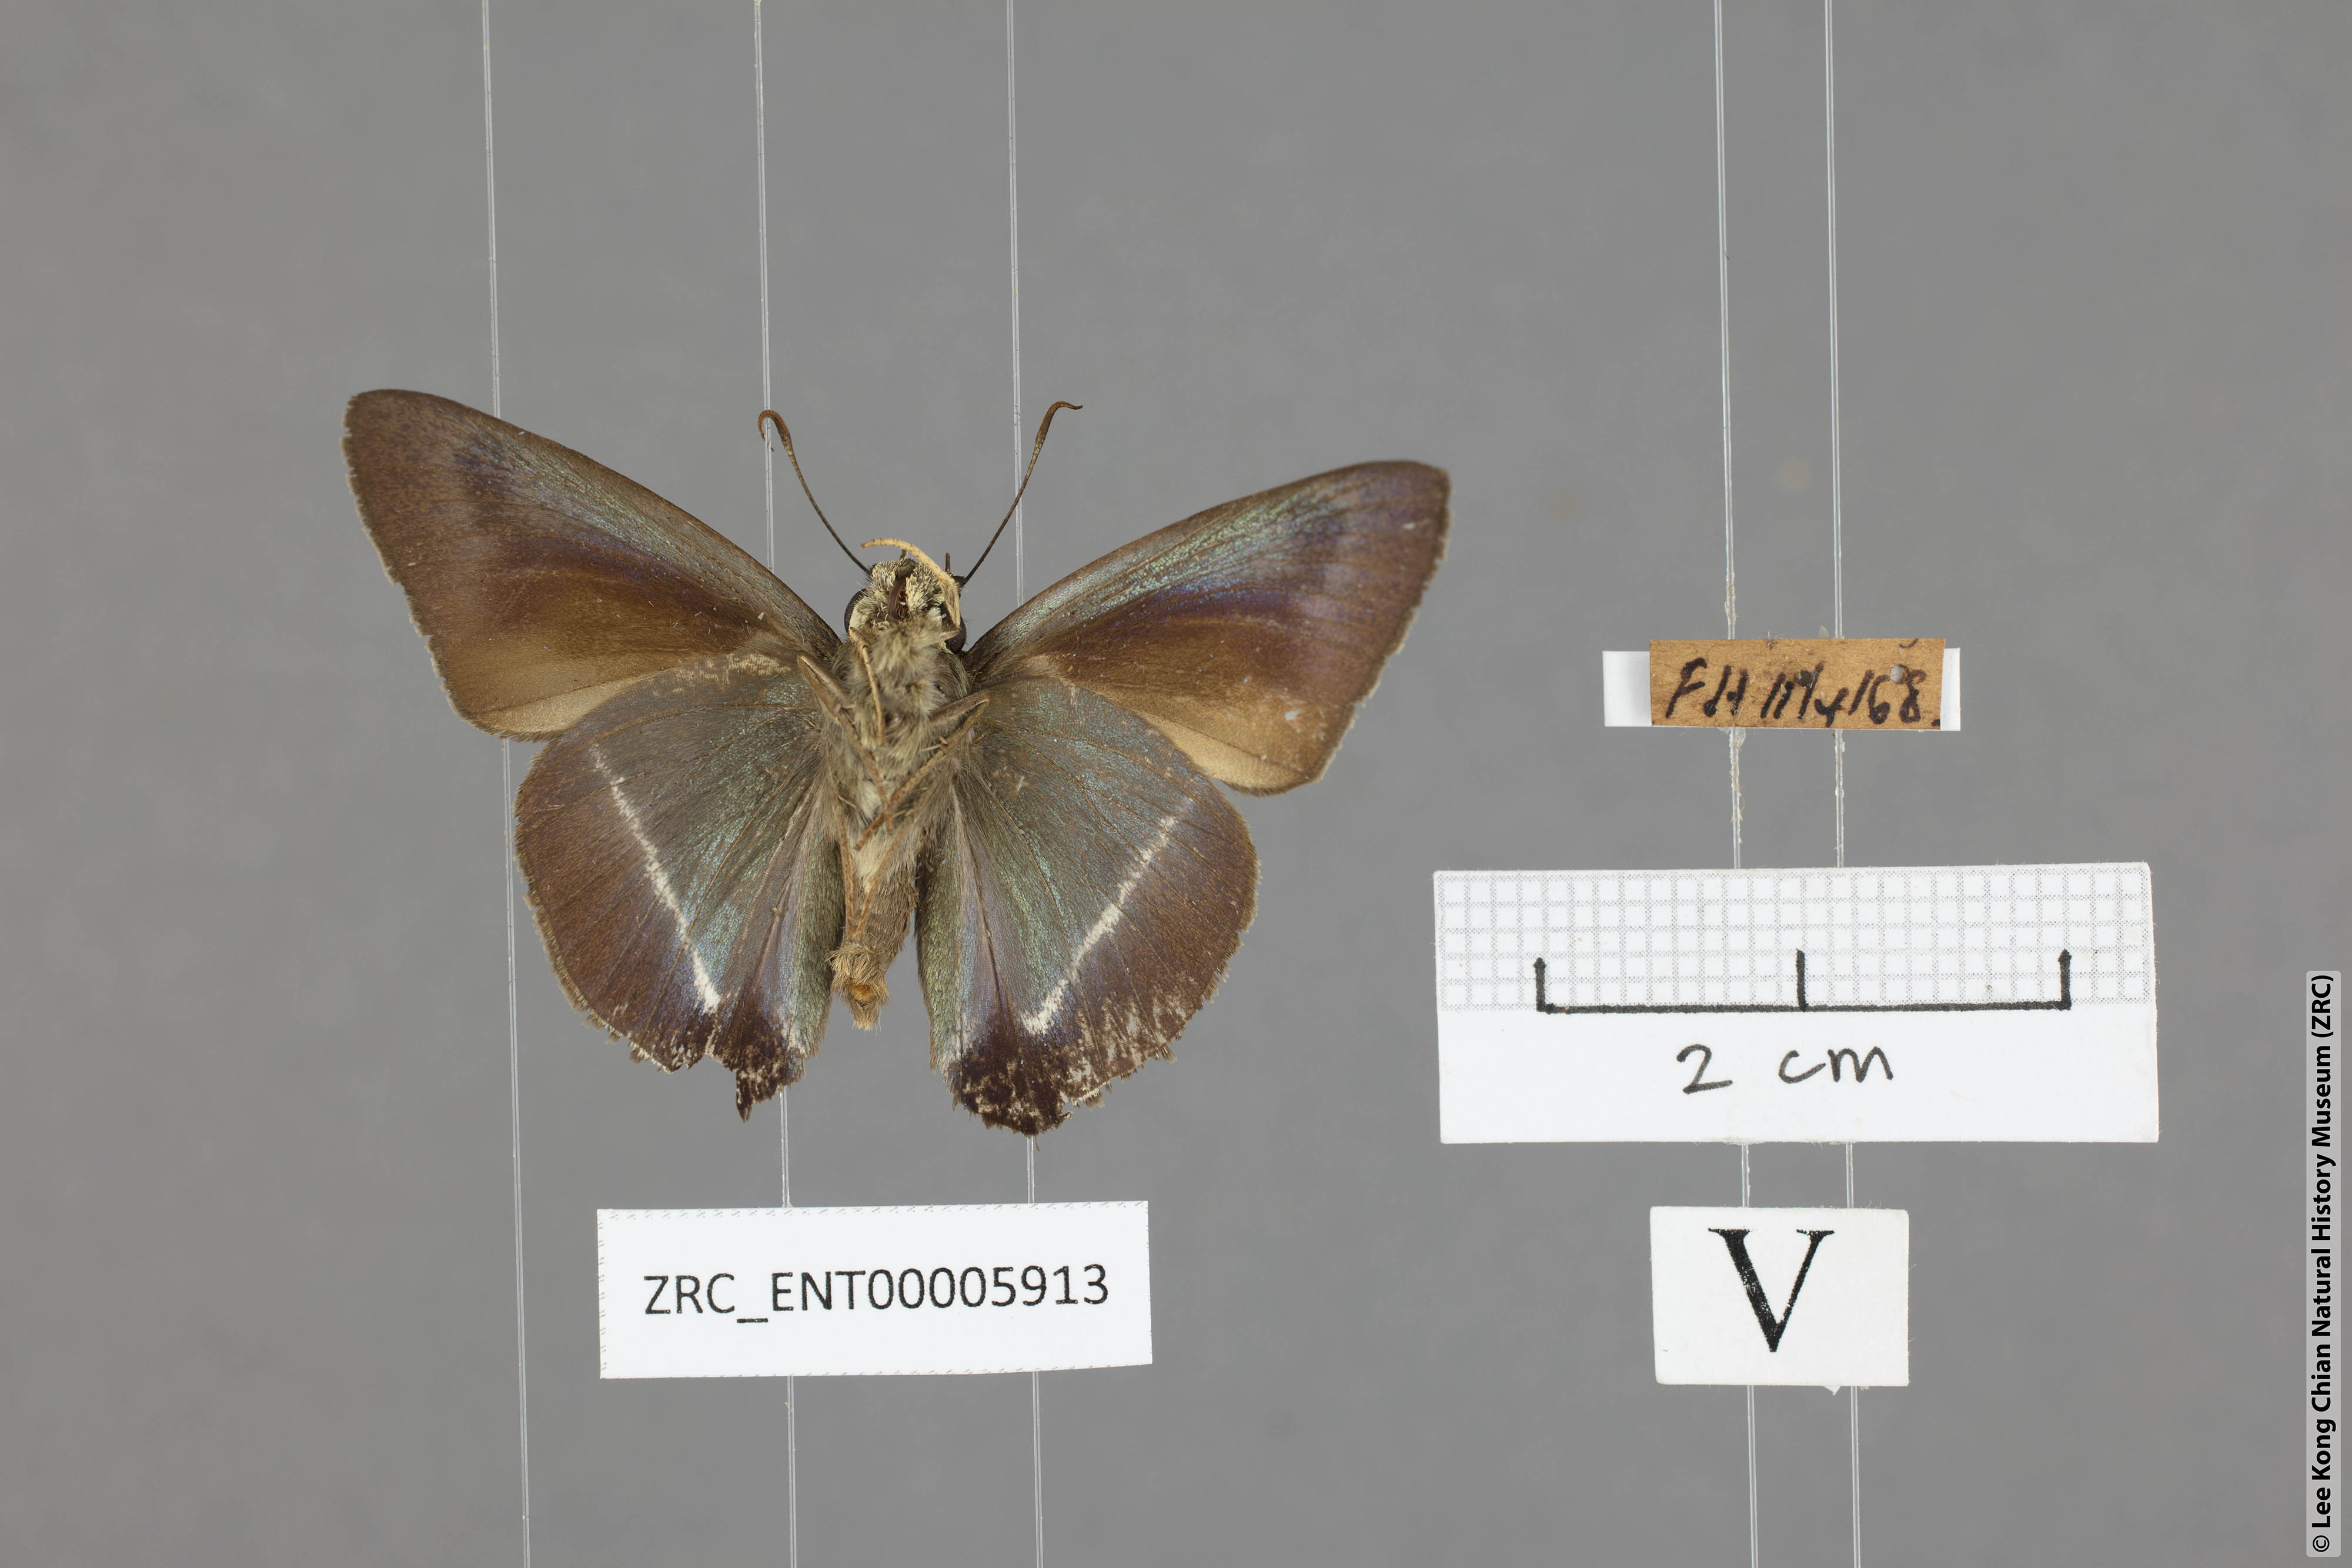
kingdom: Animalia
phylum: Arthropoda
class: Insecta
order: Lepidoptera
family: Hesperiidae
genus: Hasora
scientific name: Hasora taminatus
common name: White banded awl
